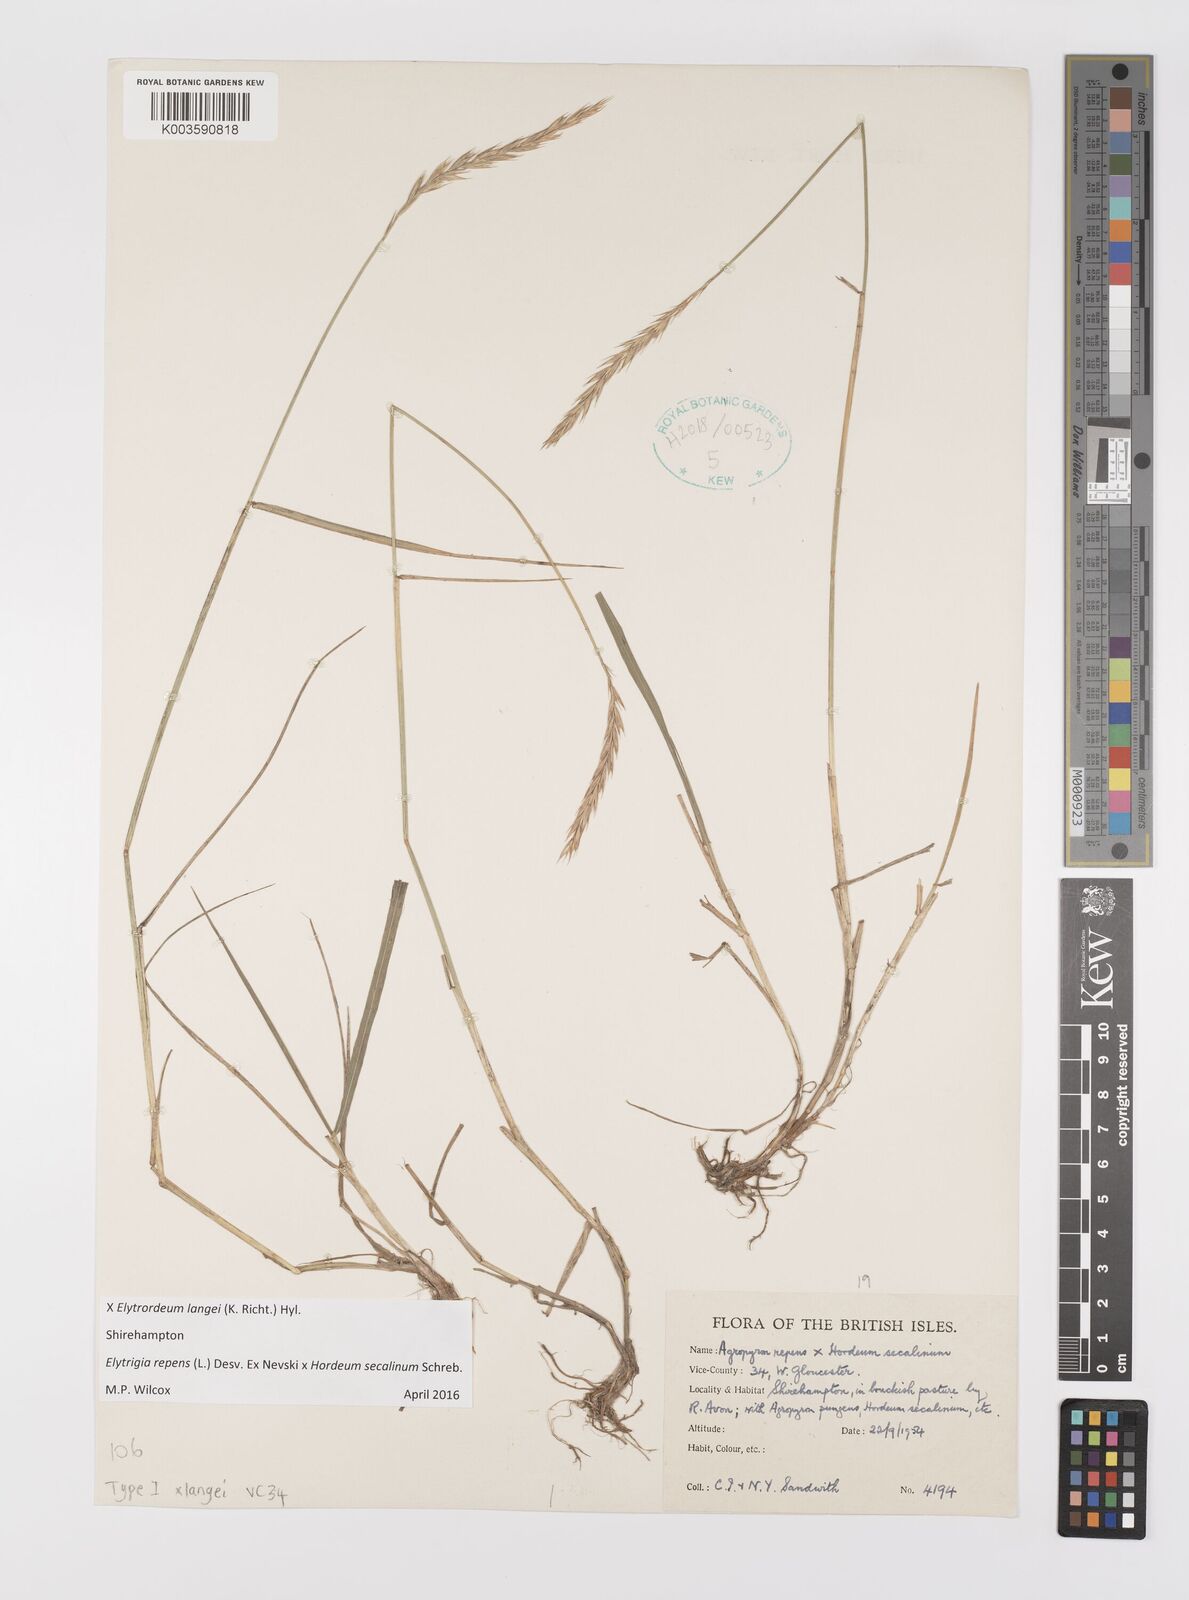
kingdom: Plantae
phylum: Tracheophyta
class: Liliopsida
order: Poales
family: Poaceae
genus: Elyhordeum
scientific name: Elyhordeum langei
